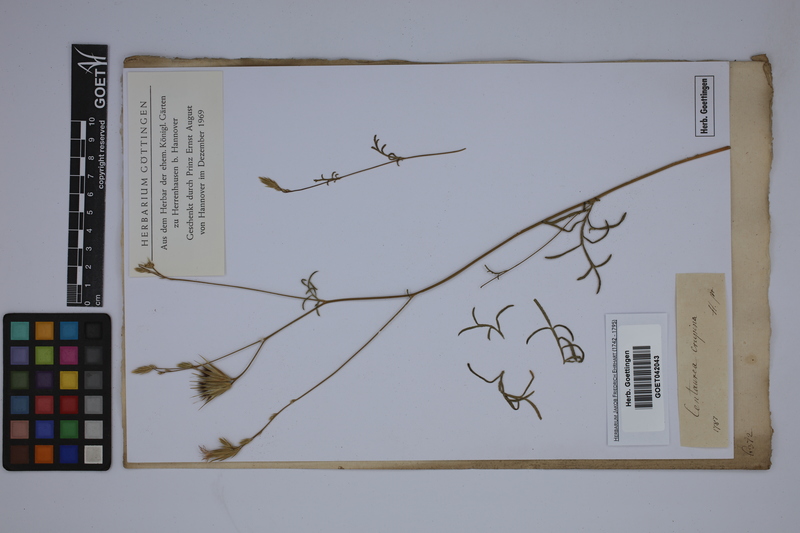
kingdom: Plantae
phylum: Tracheophyta
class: Magnoliopsida
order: Asterales
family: Asteraceae
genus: Crupina
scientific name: Crupina vulgaris
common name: Common crupina
